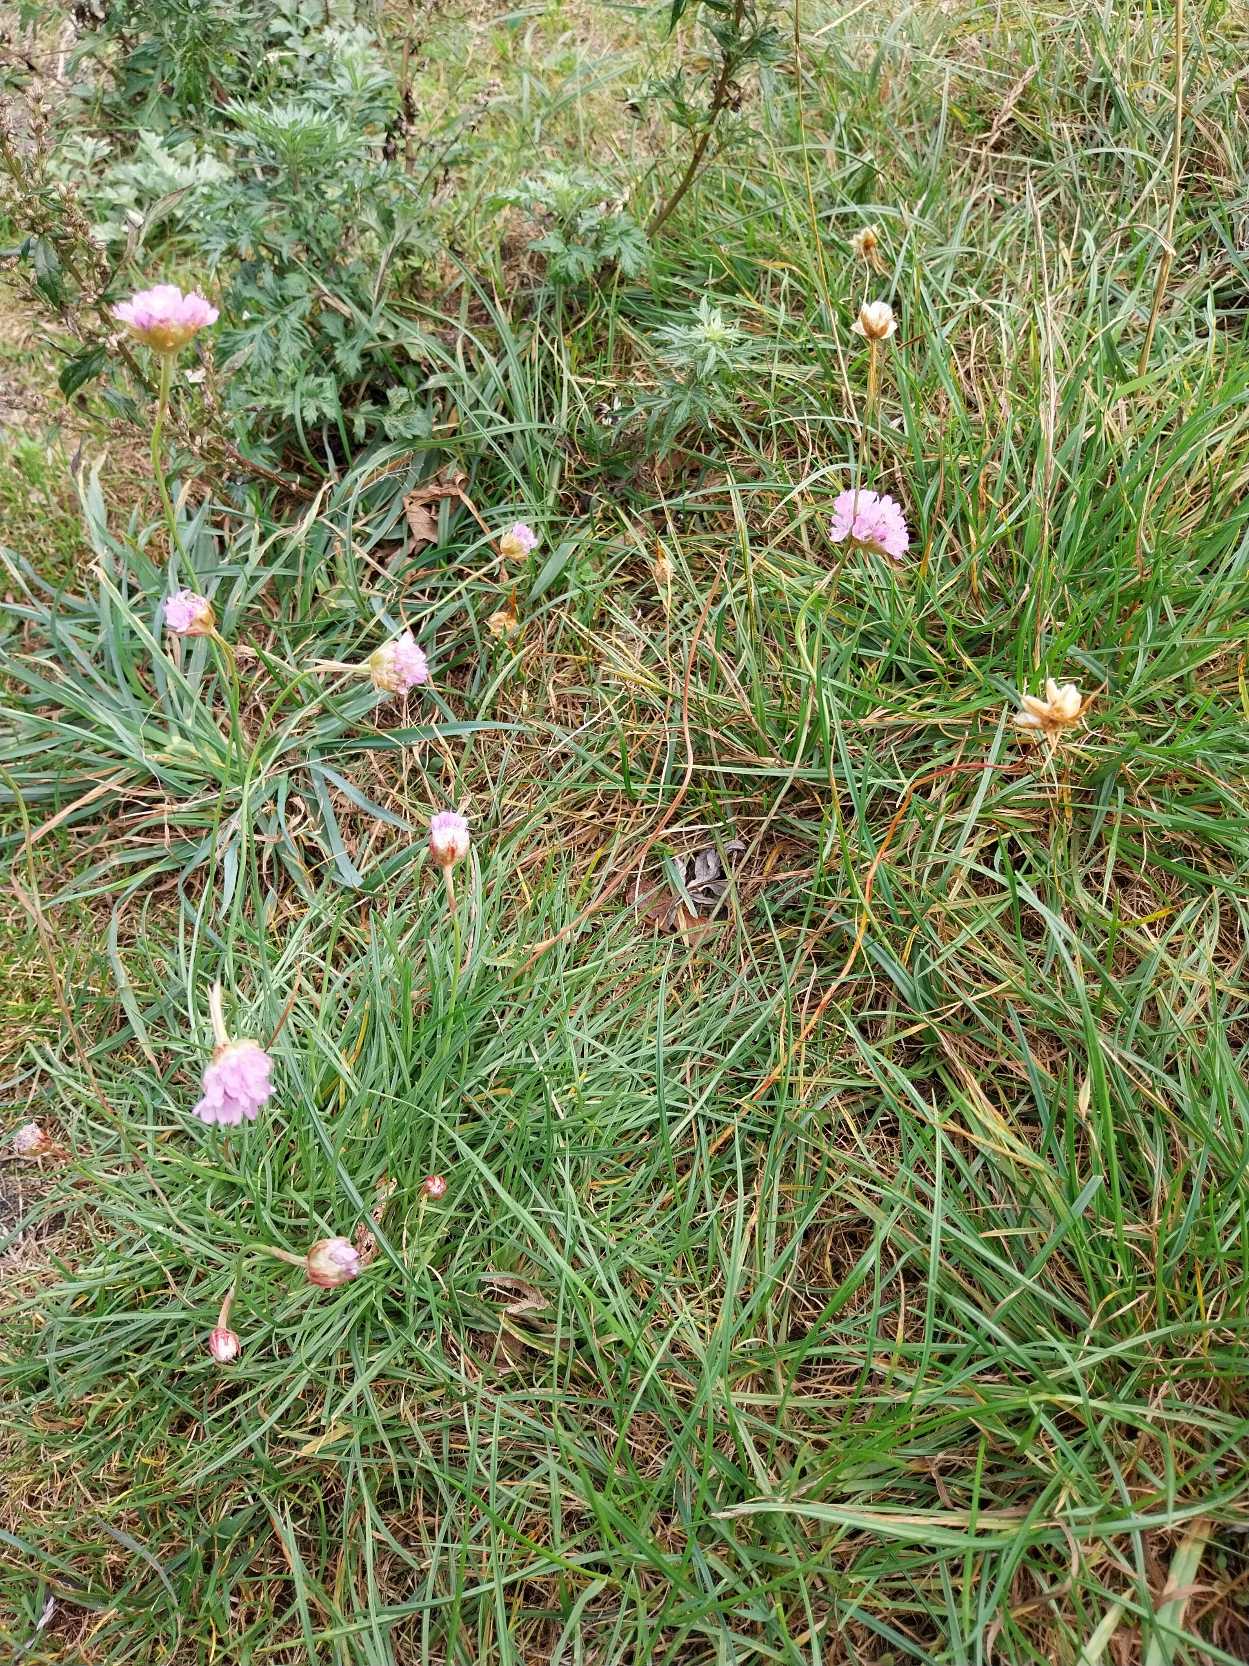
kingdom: Plantae
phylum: Tracheophyta
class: Magnoliopsida
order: Caryophyllales
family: Plumbaginaceae
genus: Armeria
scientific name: Armeria maritima
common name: Engelskgræs
